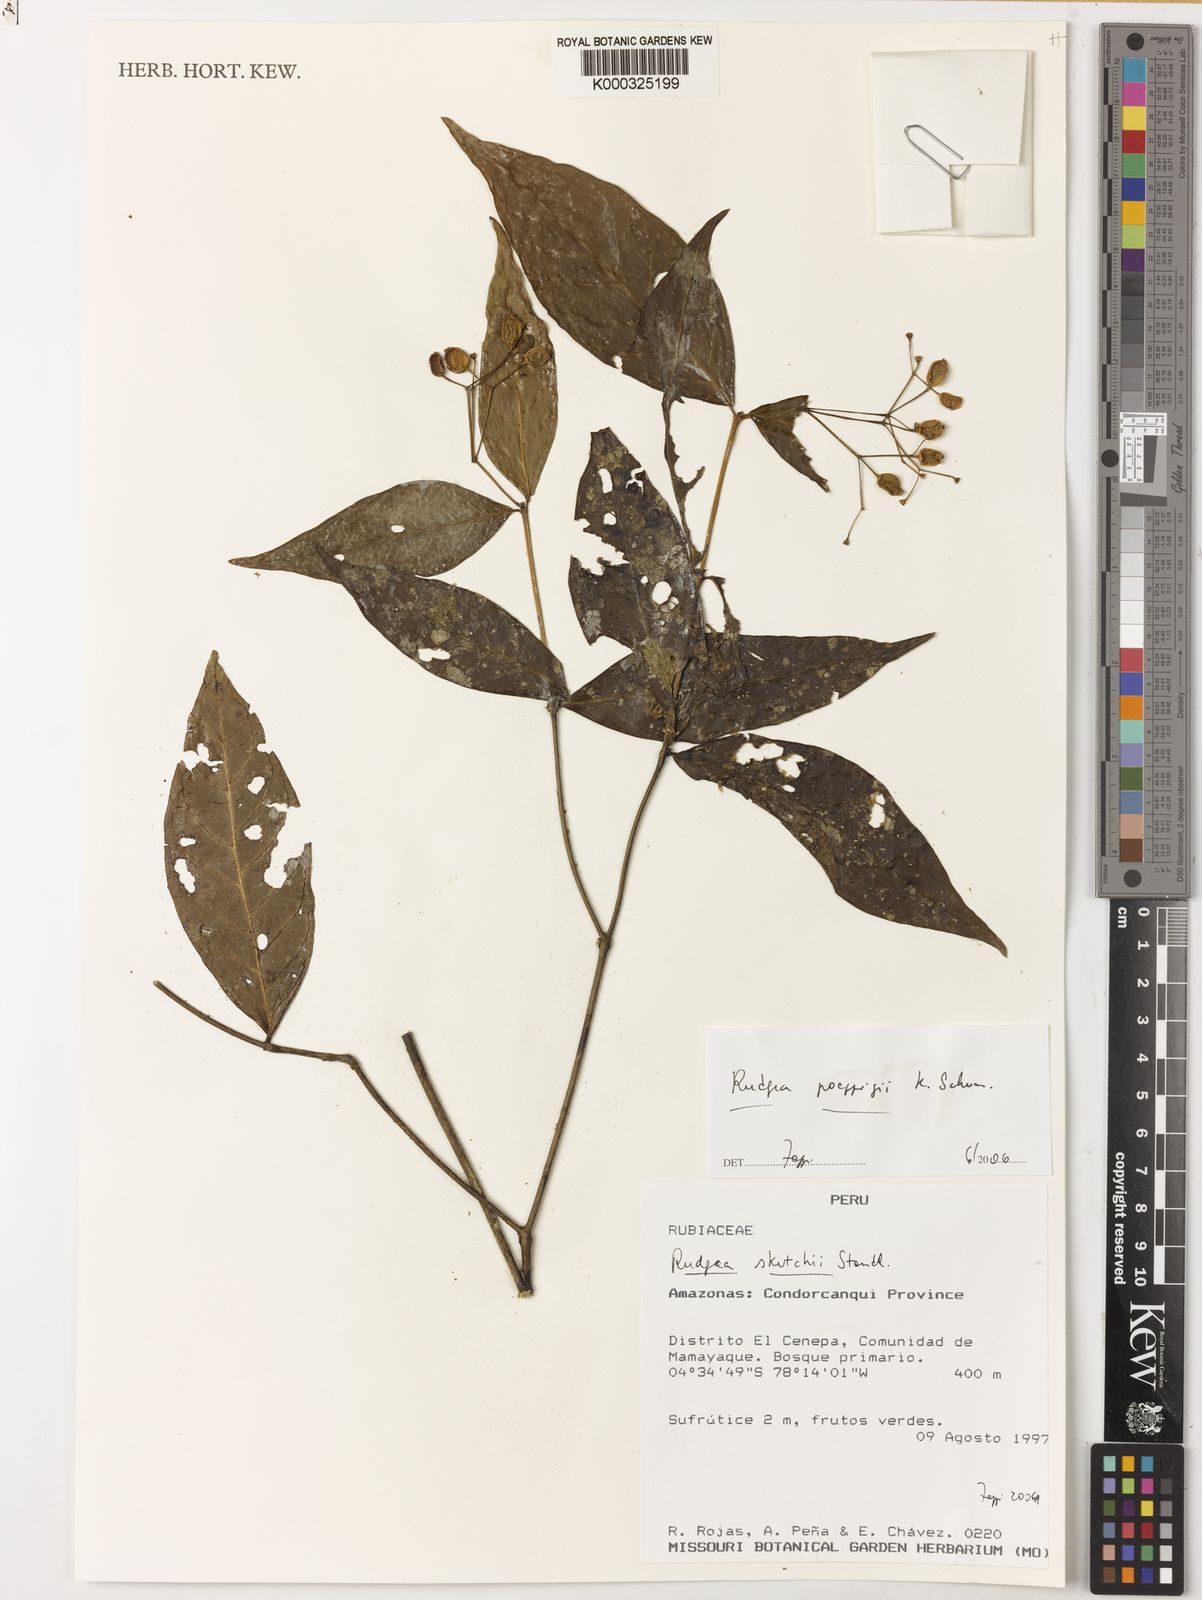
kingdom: Plantae
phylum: Tracheophyta
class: Magnoliopsida
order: Gentianales
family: Rubiaceae
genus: Rudgea
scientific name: Rudgea poeppigii
